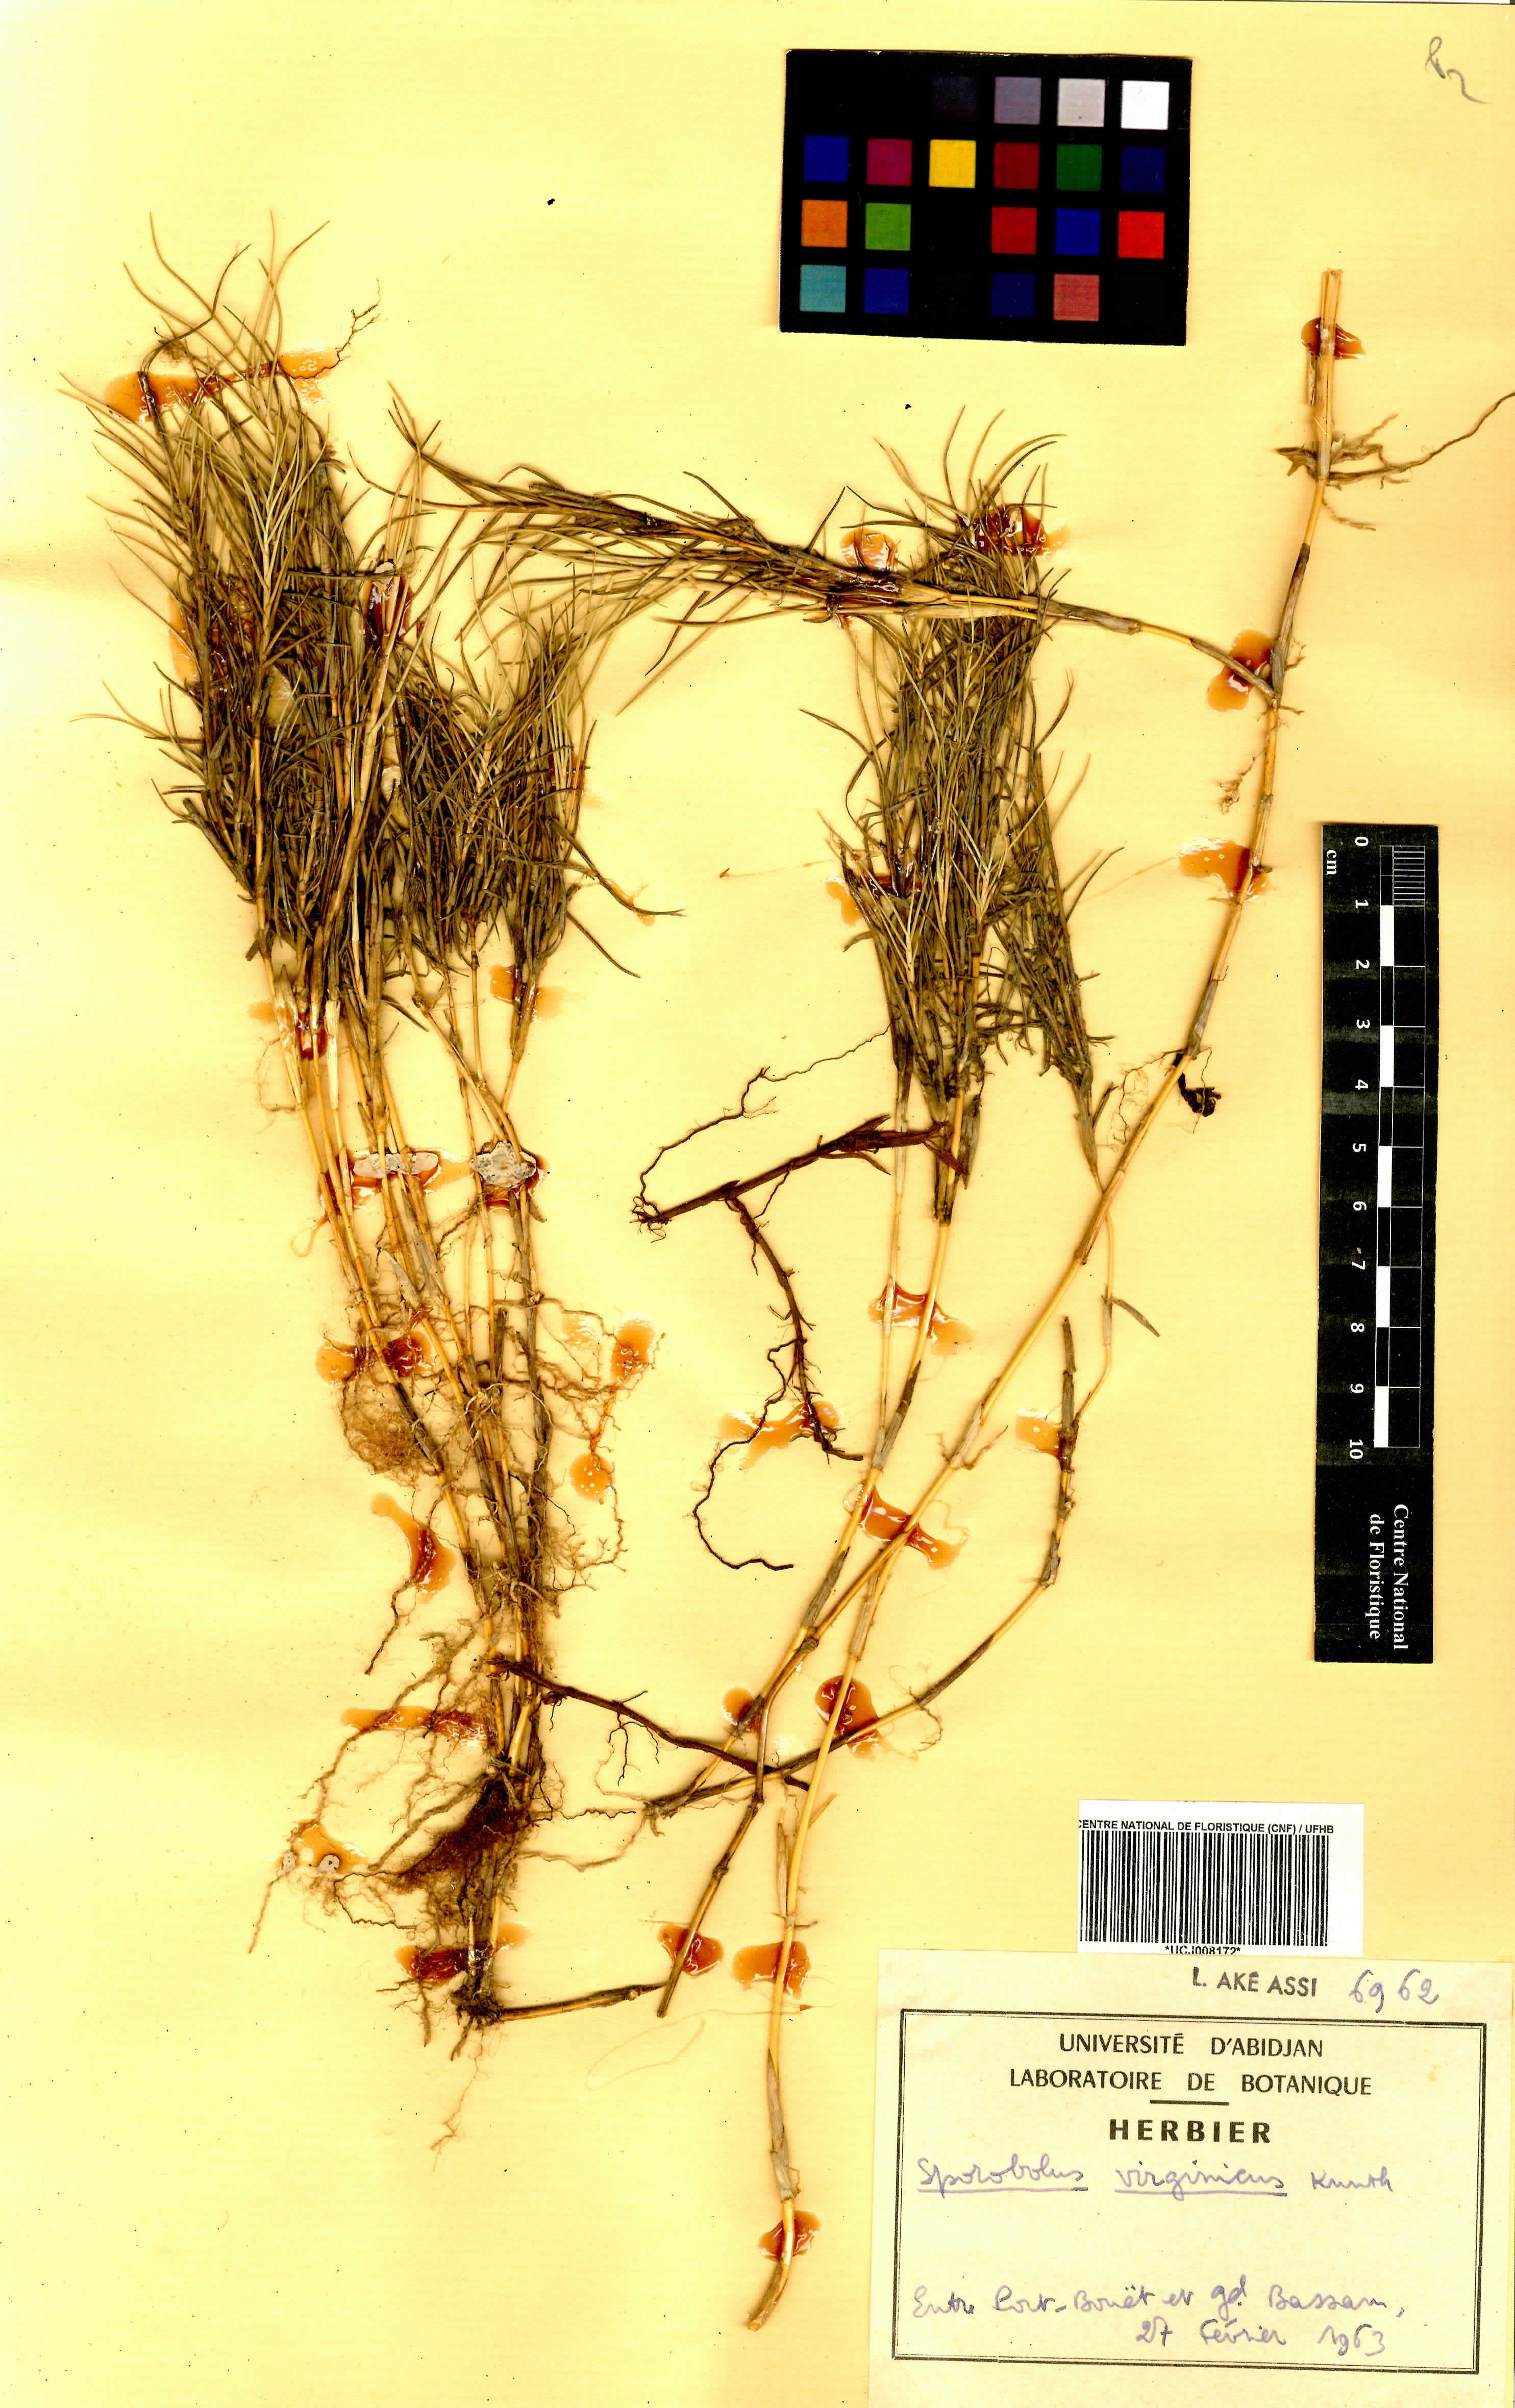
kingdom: Plantae
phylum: Tracheophyta
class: Liliopsida
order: Poales
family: Poaceae
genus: Sporobolus
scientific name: Sporobolus virginicus
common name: Beach dropseed
